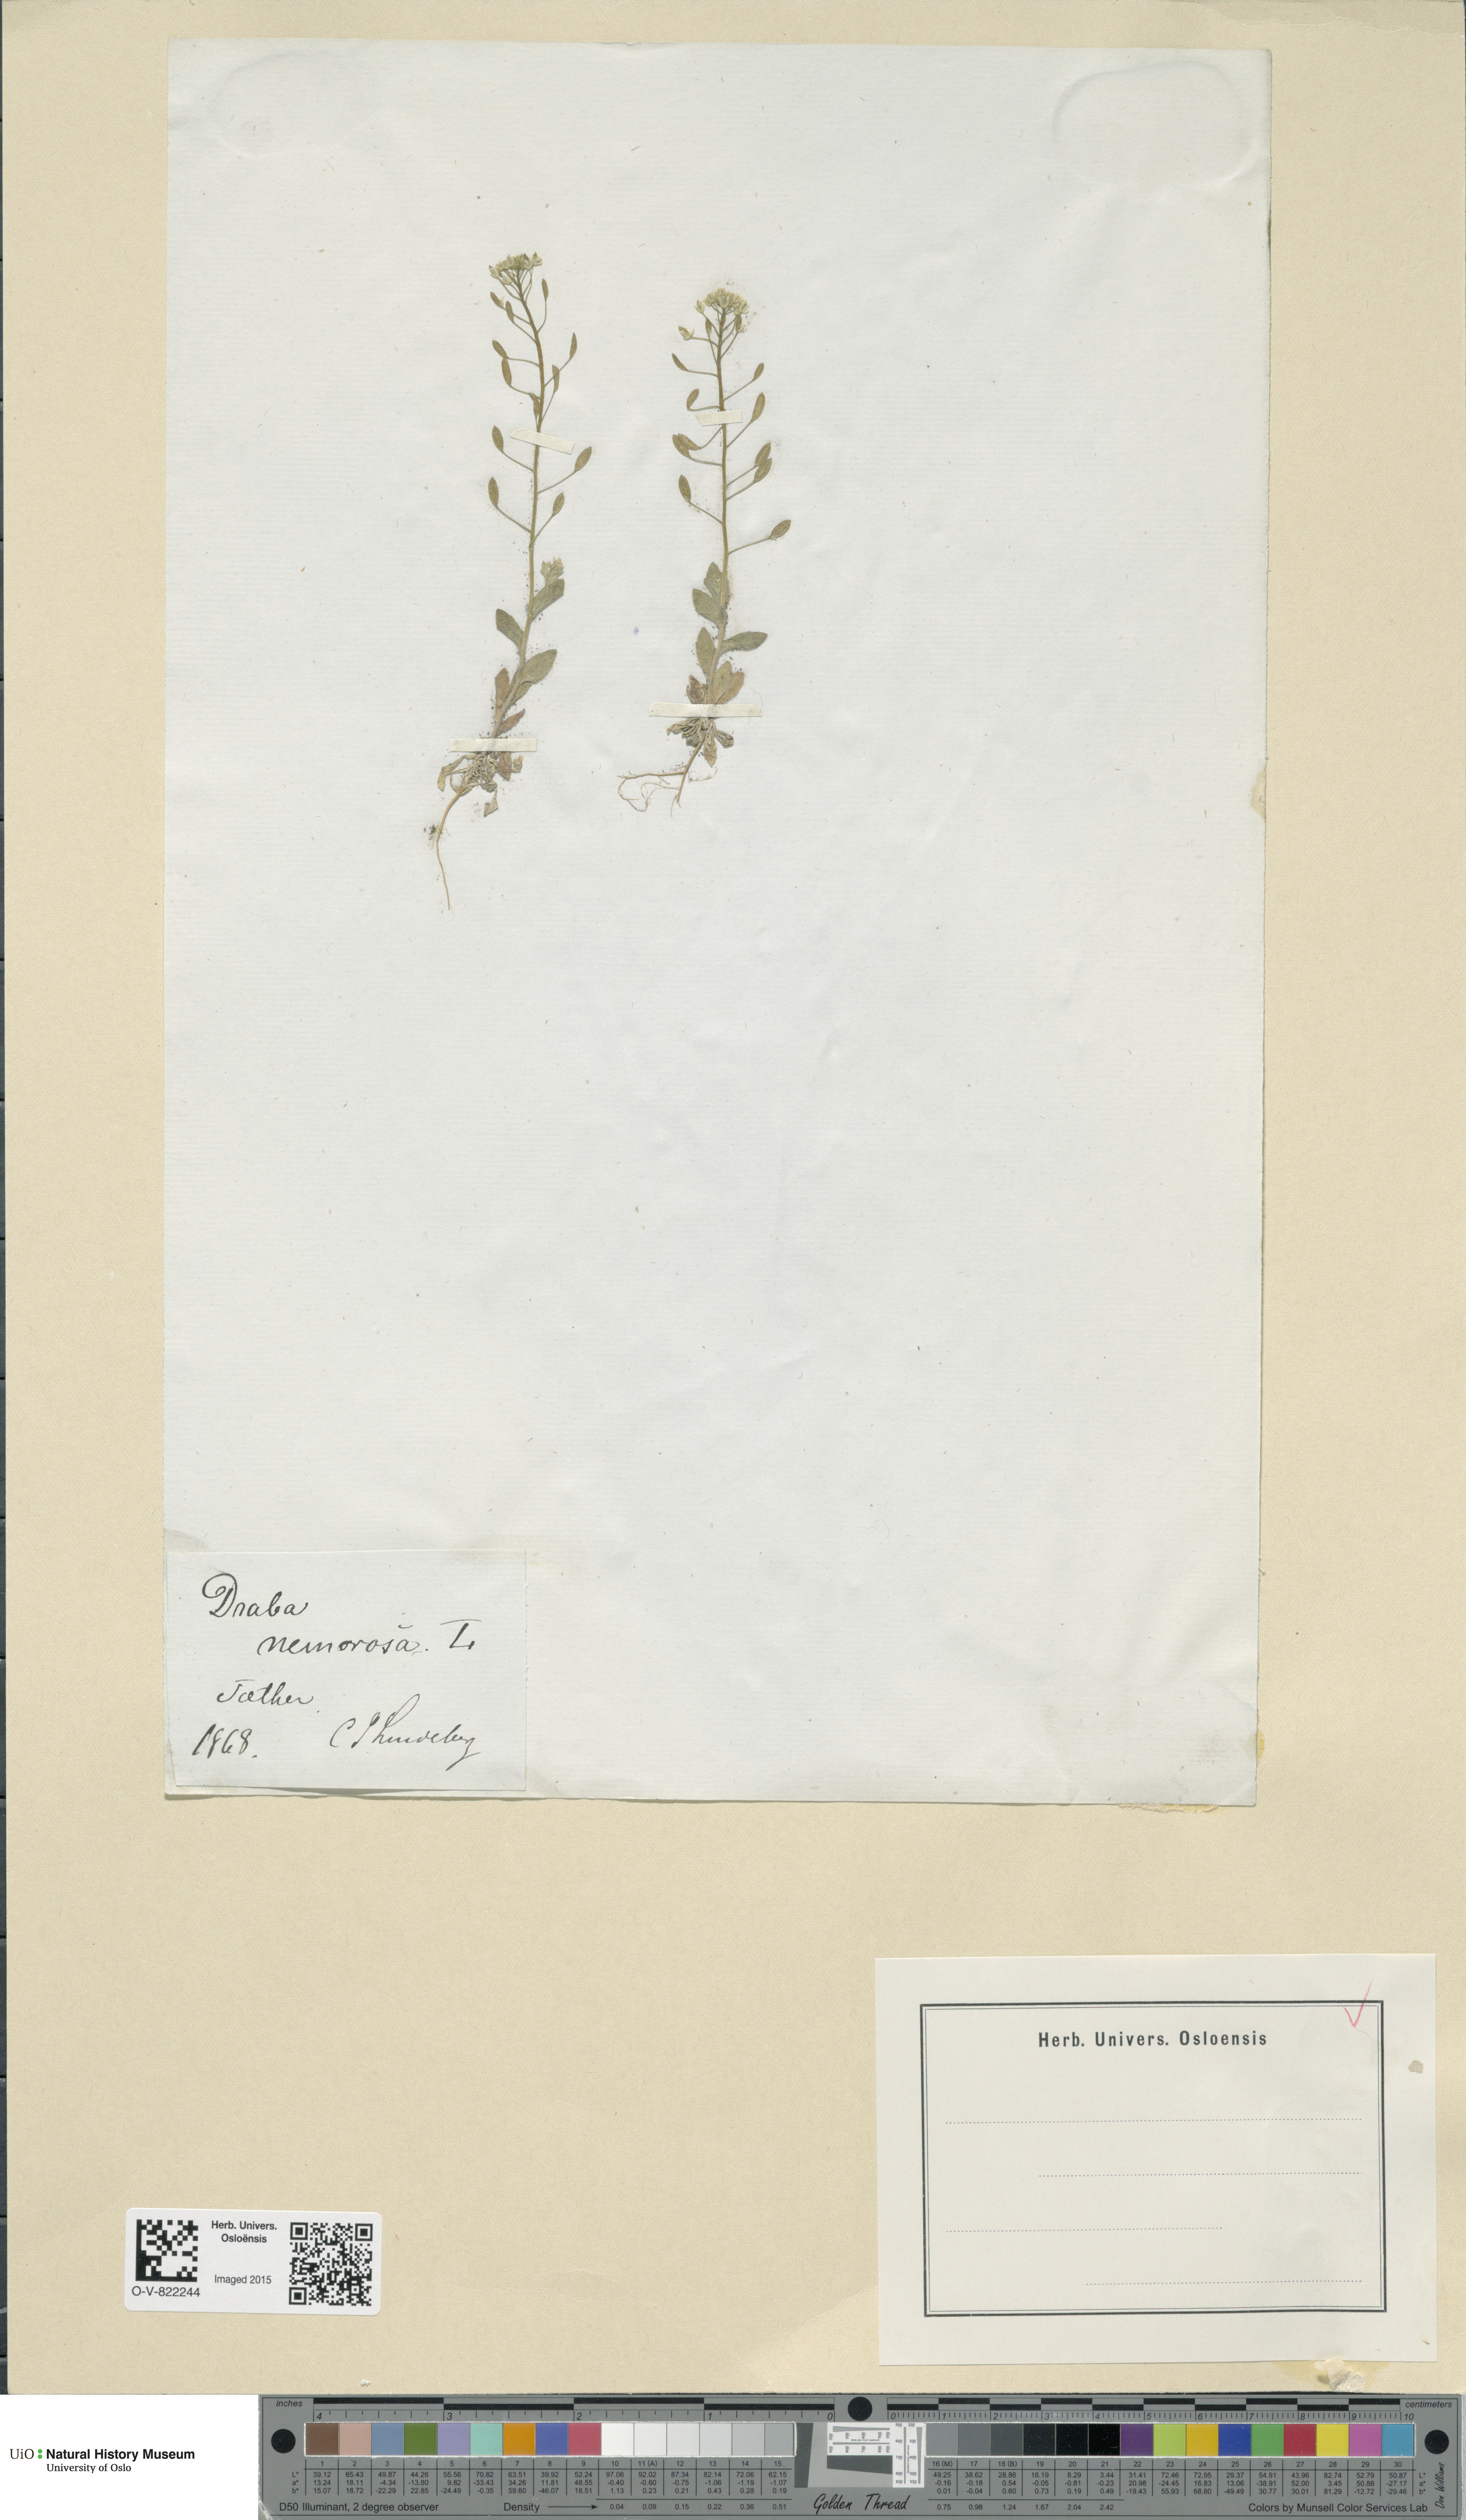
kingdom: Plantae
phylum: Tracheophyta
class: Magnoliopsida
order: Brassicales
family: Brassicaceae
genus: Draba
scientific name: Draba nemorosa
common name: Wood whitlow-grass
